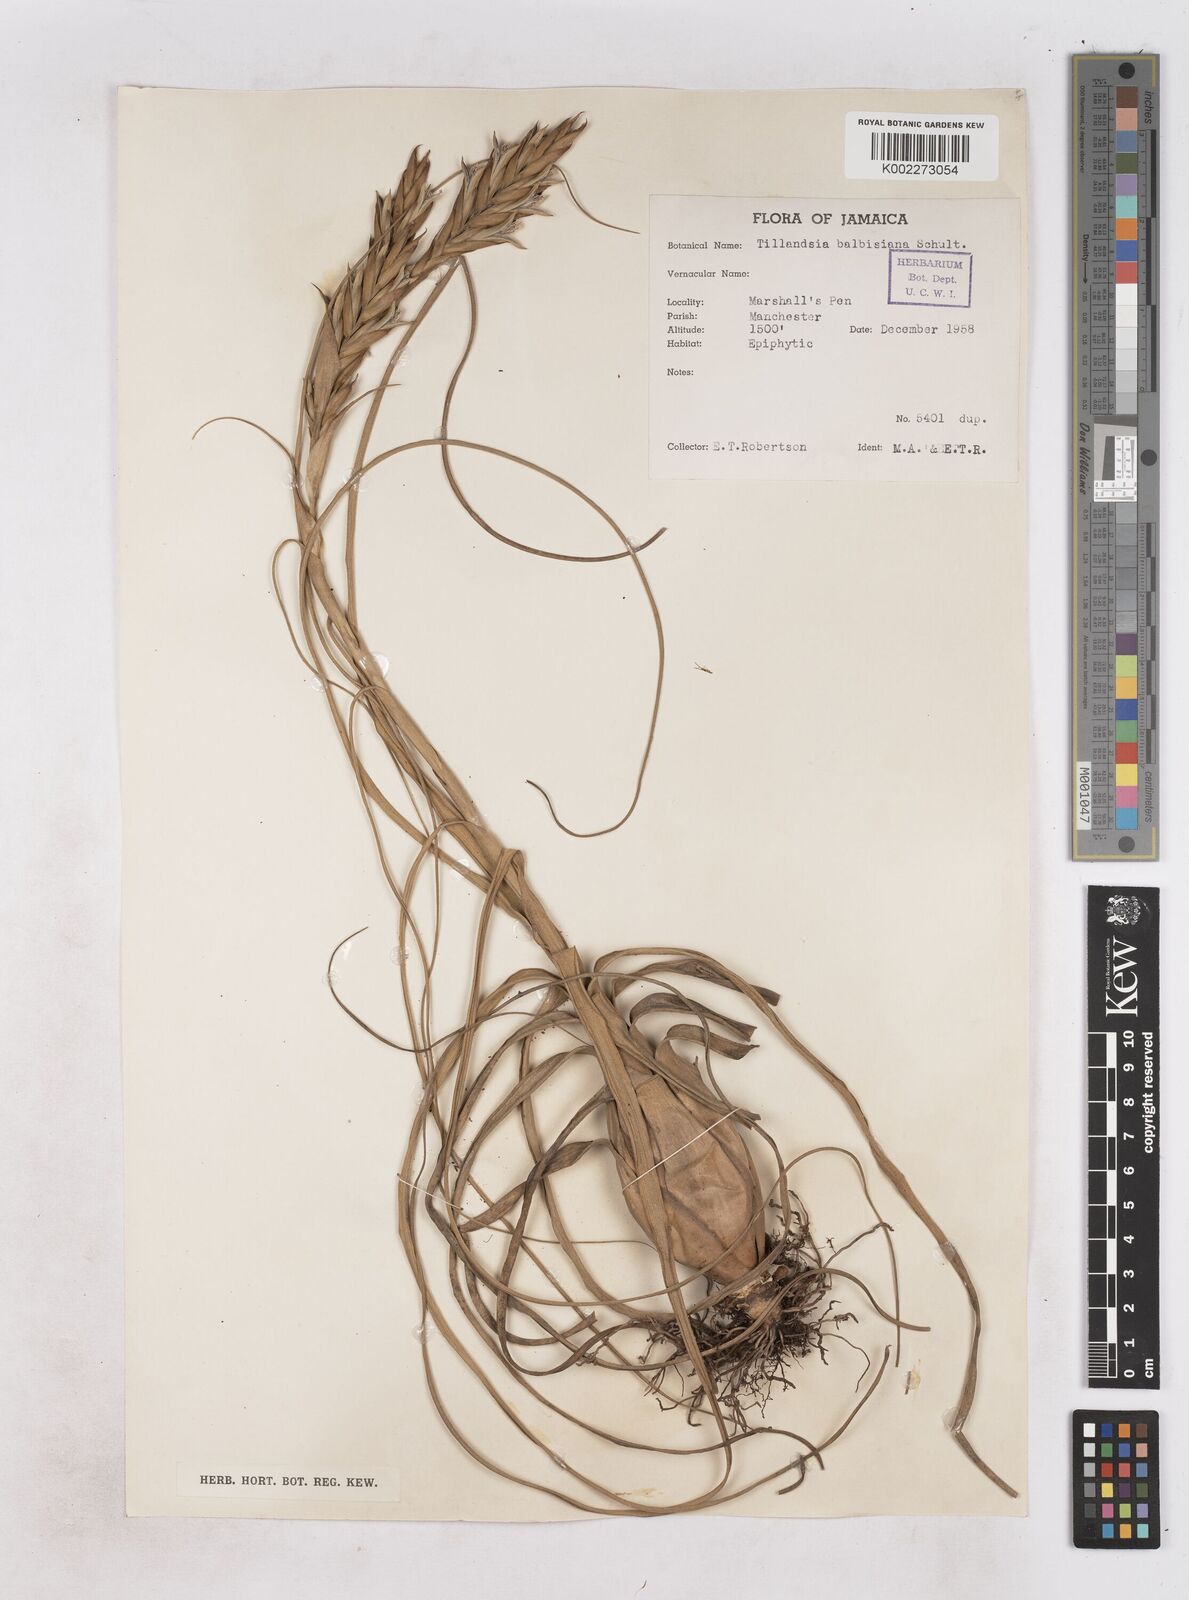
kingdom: Plantae
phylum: Tracheophyta
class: Liliopsida
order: Poales
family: Bromeliaceae
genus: Tillandsia
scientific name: Tillandsia balbisiana
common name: Northern needleleaf
